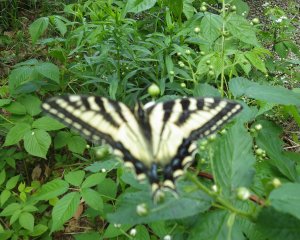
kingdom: Animalia
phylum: Arthropoda
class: Insecta
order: Lepidoptera
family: Papilionidae
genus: Pterourus
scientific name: Pterourus canadensis
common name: Canadian Tiger Swallowtail
